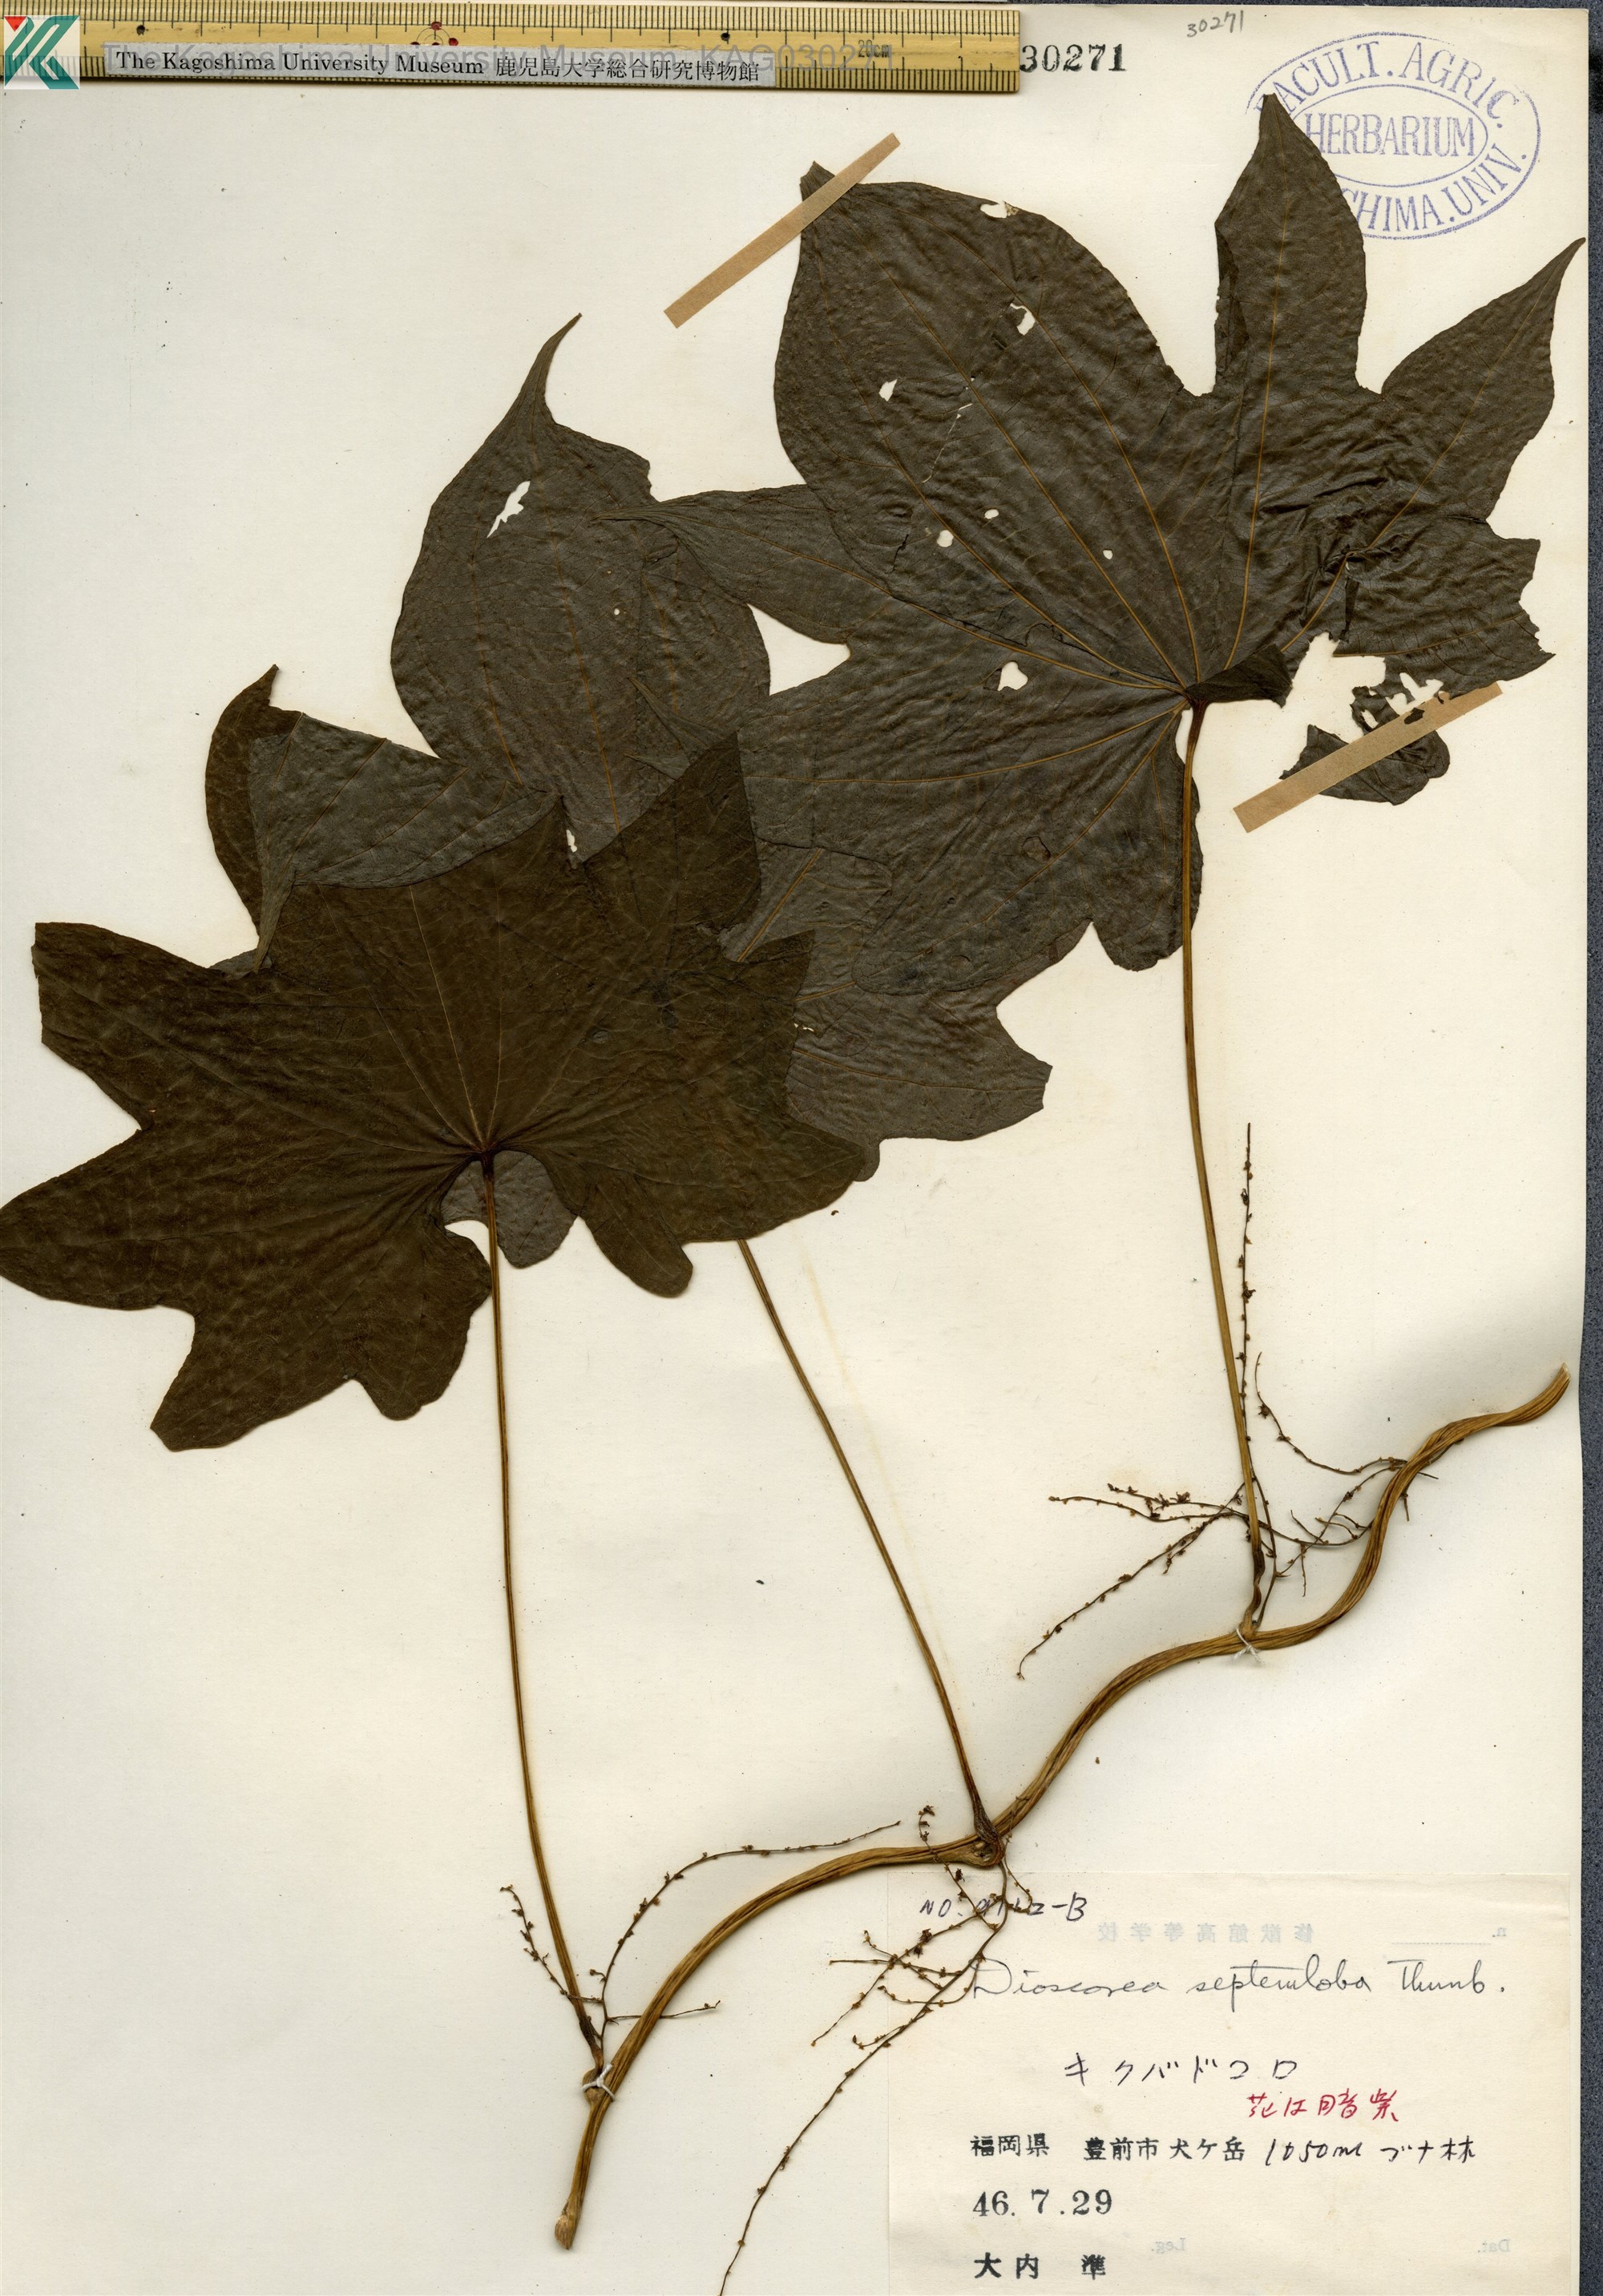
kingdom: Plantae
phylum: Tracheophyta
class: Liliopsida
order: Dioscoreales
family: Dioscoreaceae
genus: Dioscorea
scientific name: Dioscorea septemloba
